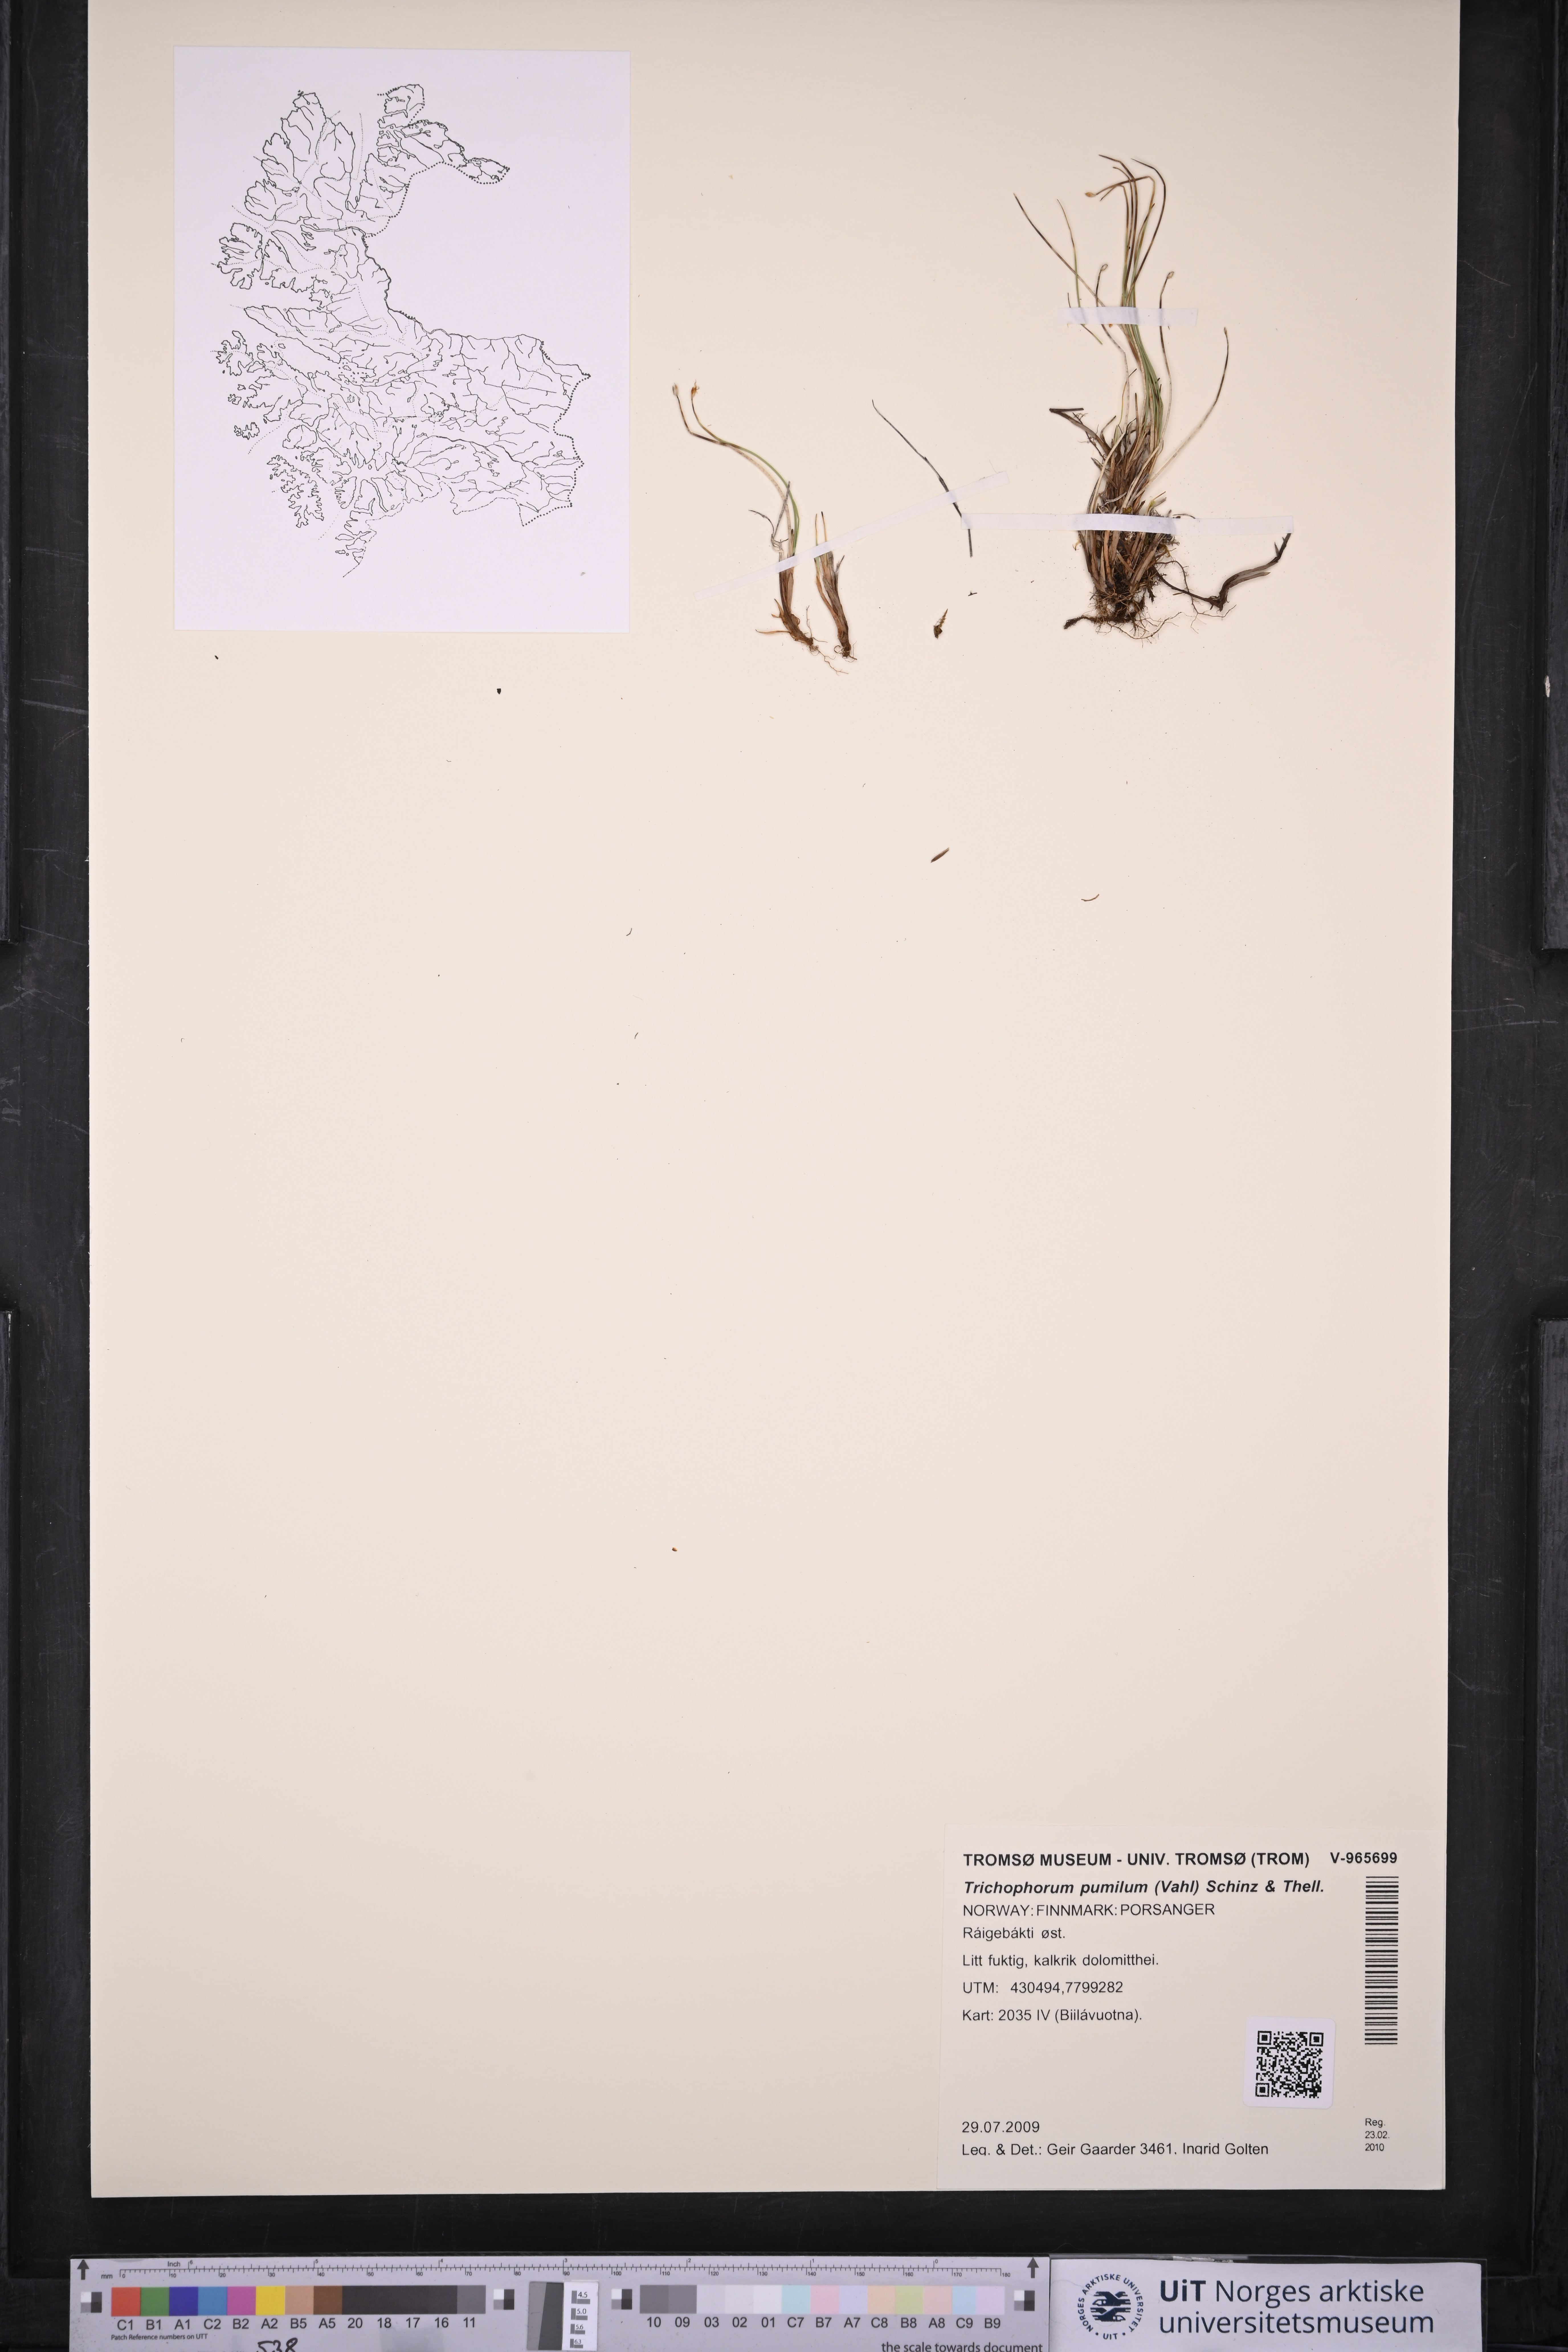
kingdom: Plantae
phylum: Tracheophyta
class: Liliopsida
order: Poales
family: Cyperaceae
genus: Trichophorum
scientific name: Trichophorum pumilum
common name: Rolland's bulrush
